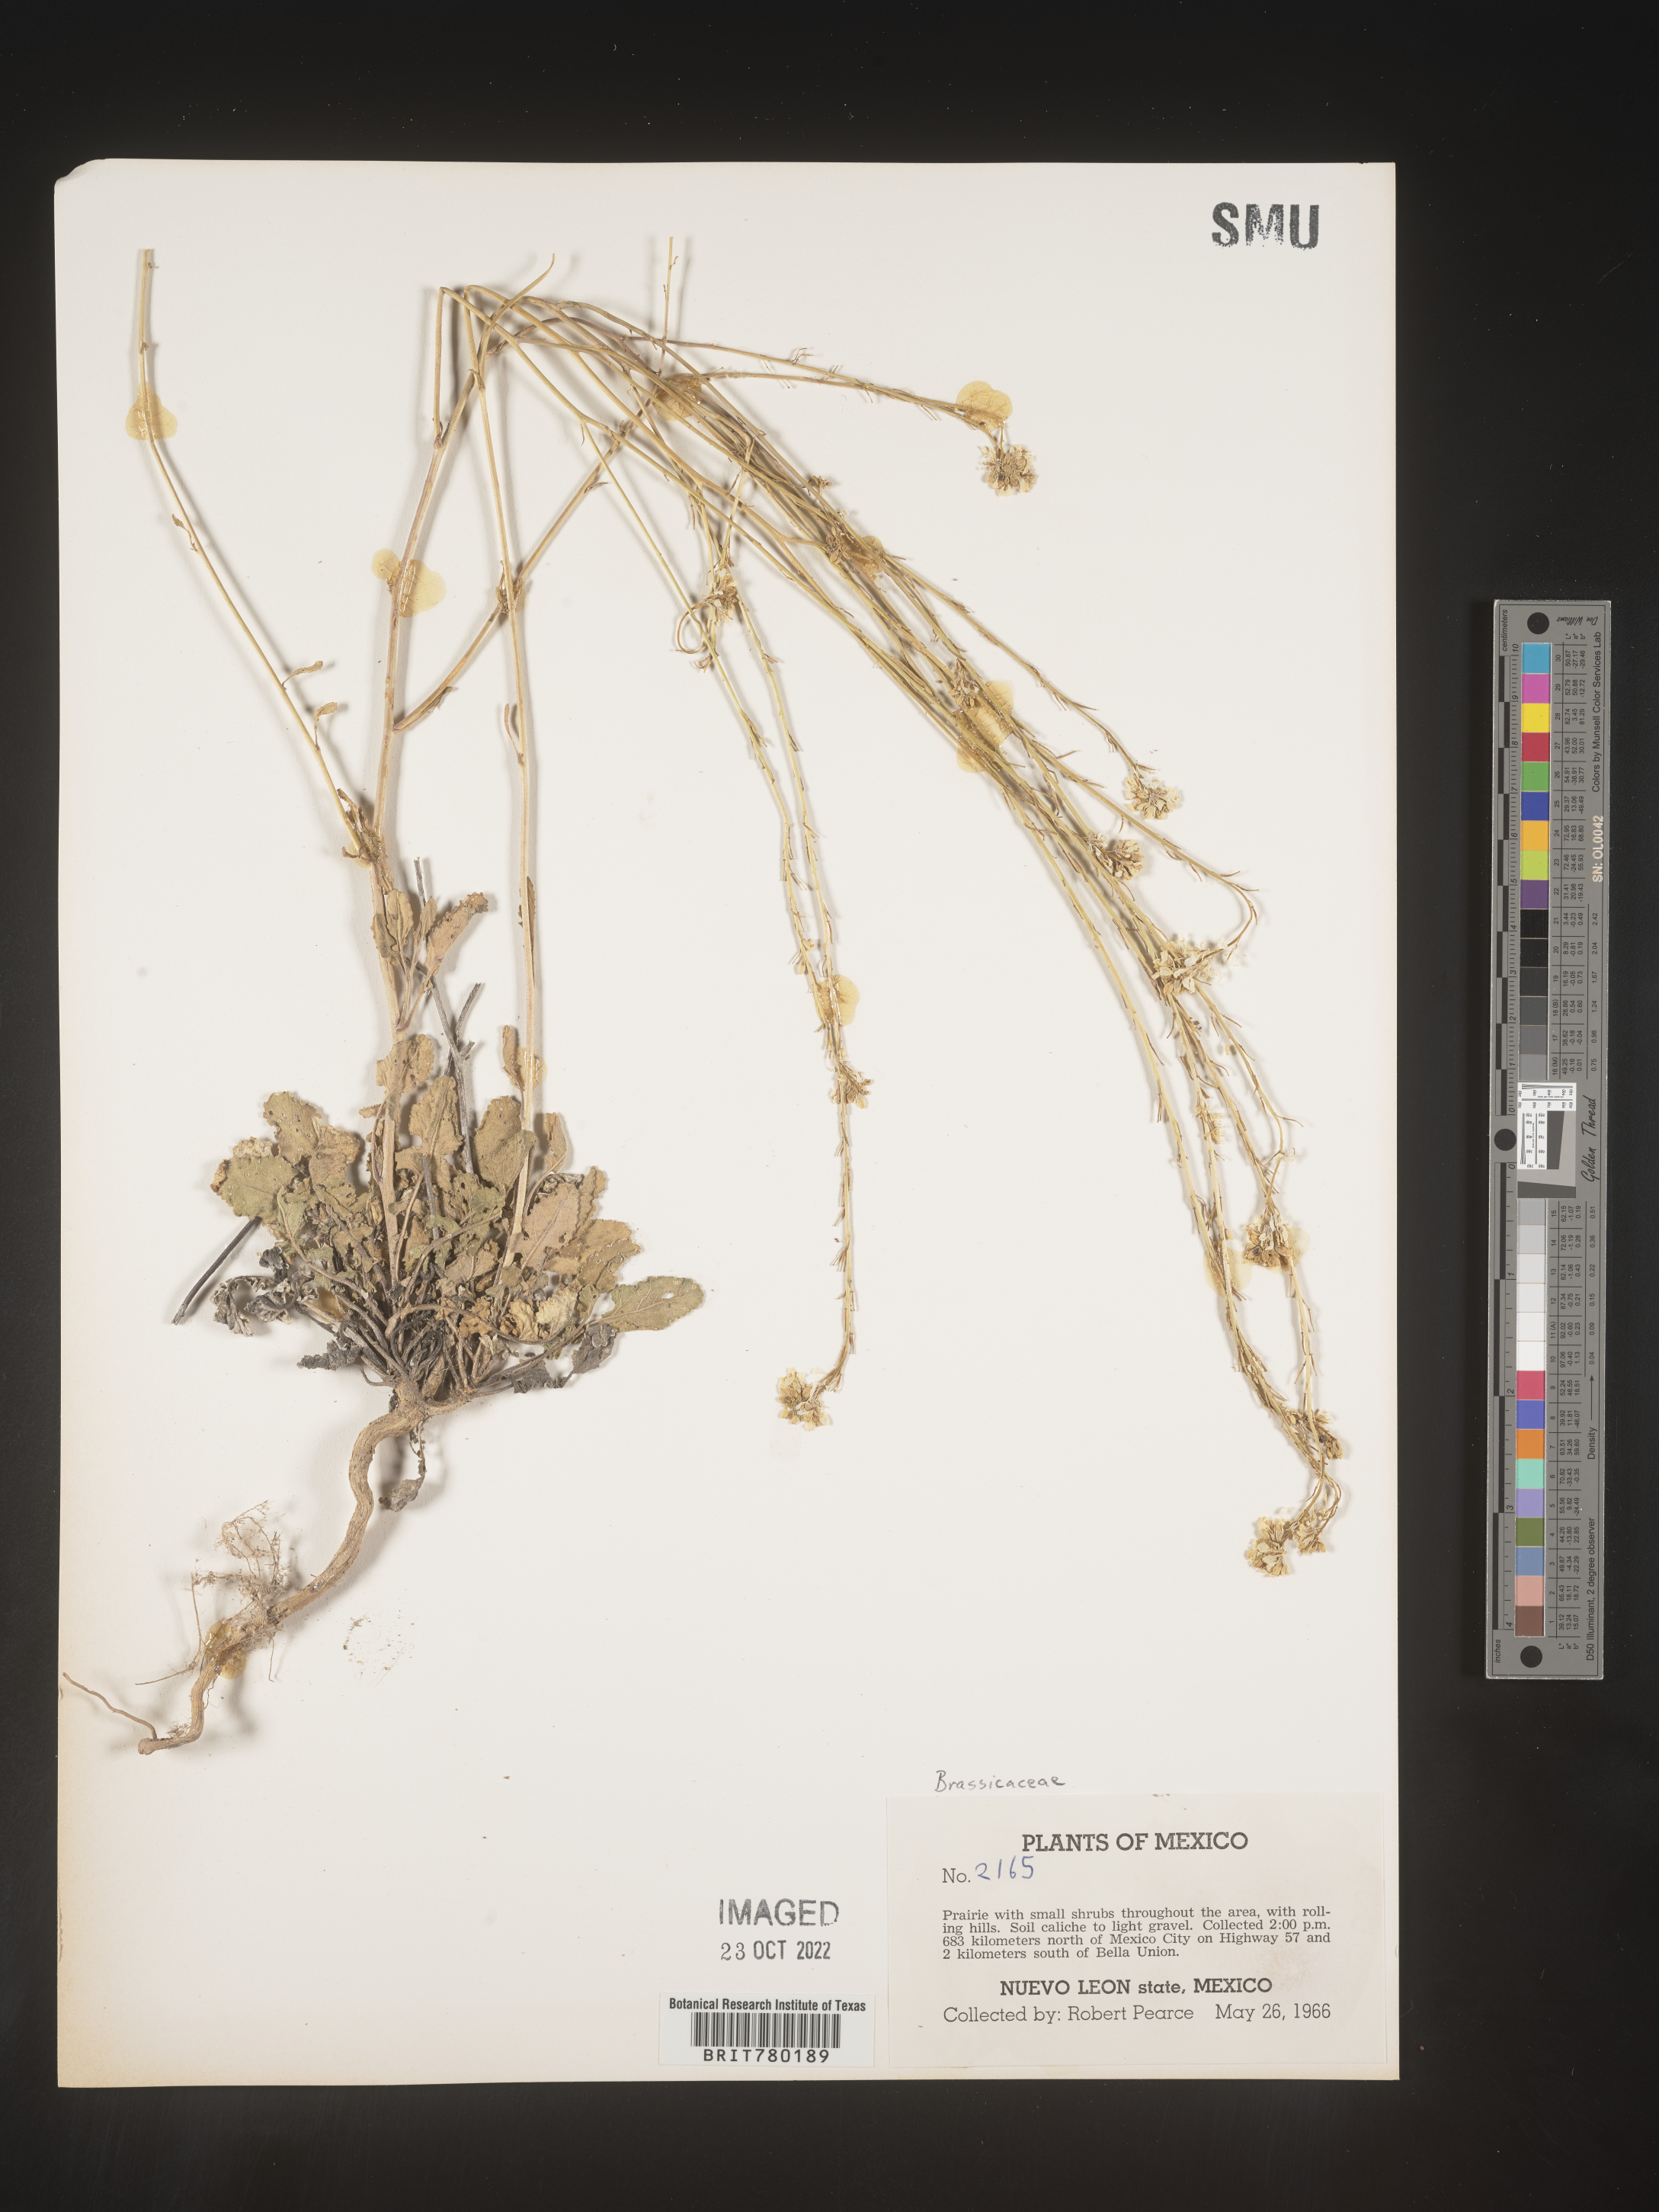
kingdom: Plantae
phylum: Tracheophyta
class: Magnoliopsida
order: Brassicales
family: Brassicaceae
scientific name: Brassicaceae
